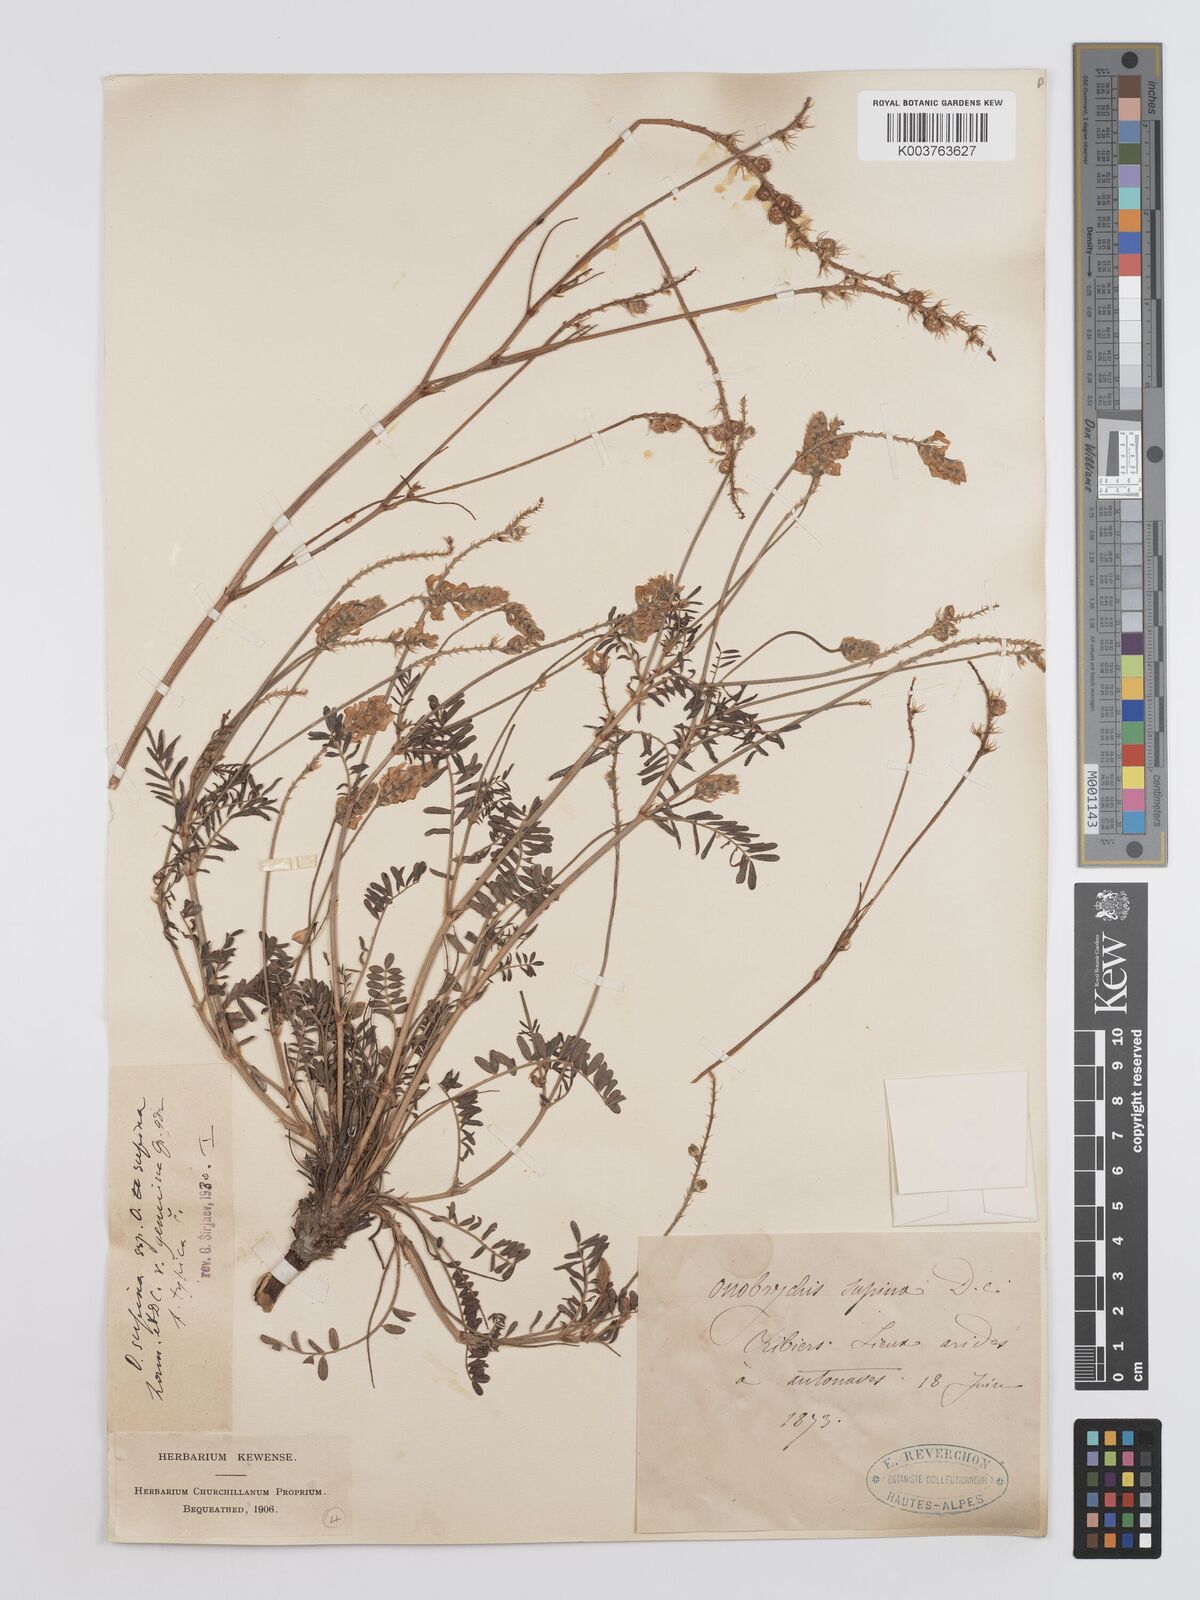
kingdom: Plantae
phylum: Tracheophyta
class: Magnoliopsida
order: Fabales
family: Fabaceae
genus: Onobrychis
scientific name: Onobrychis supina
